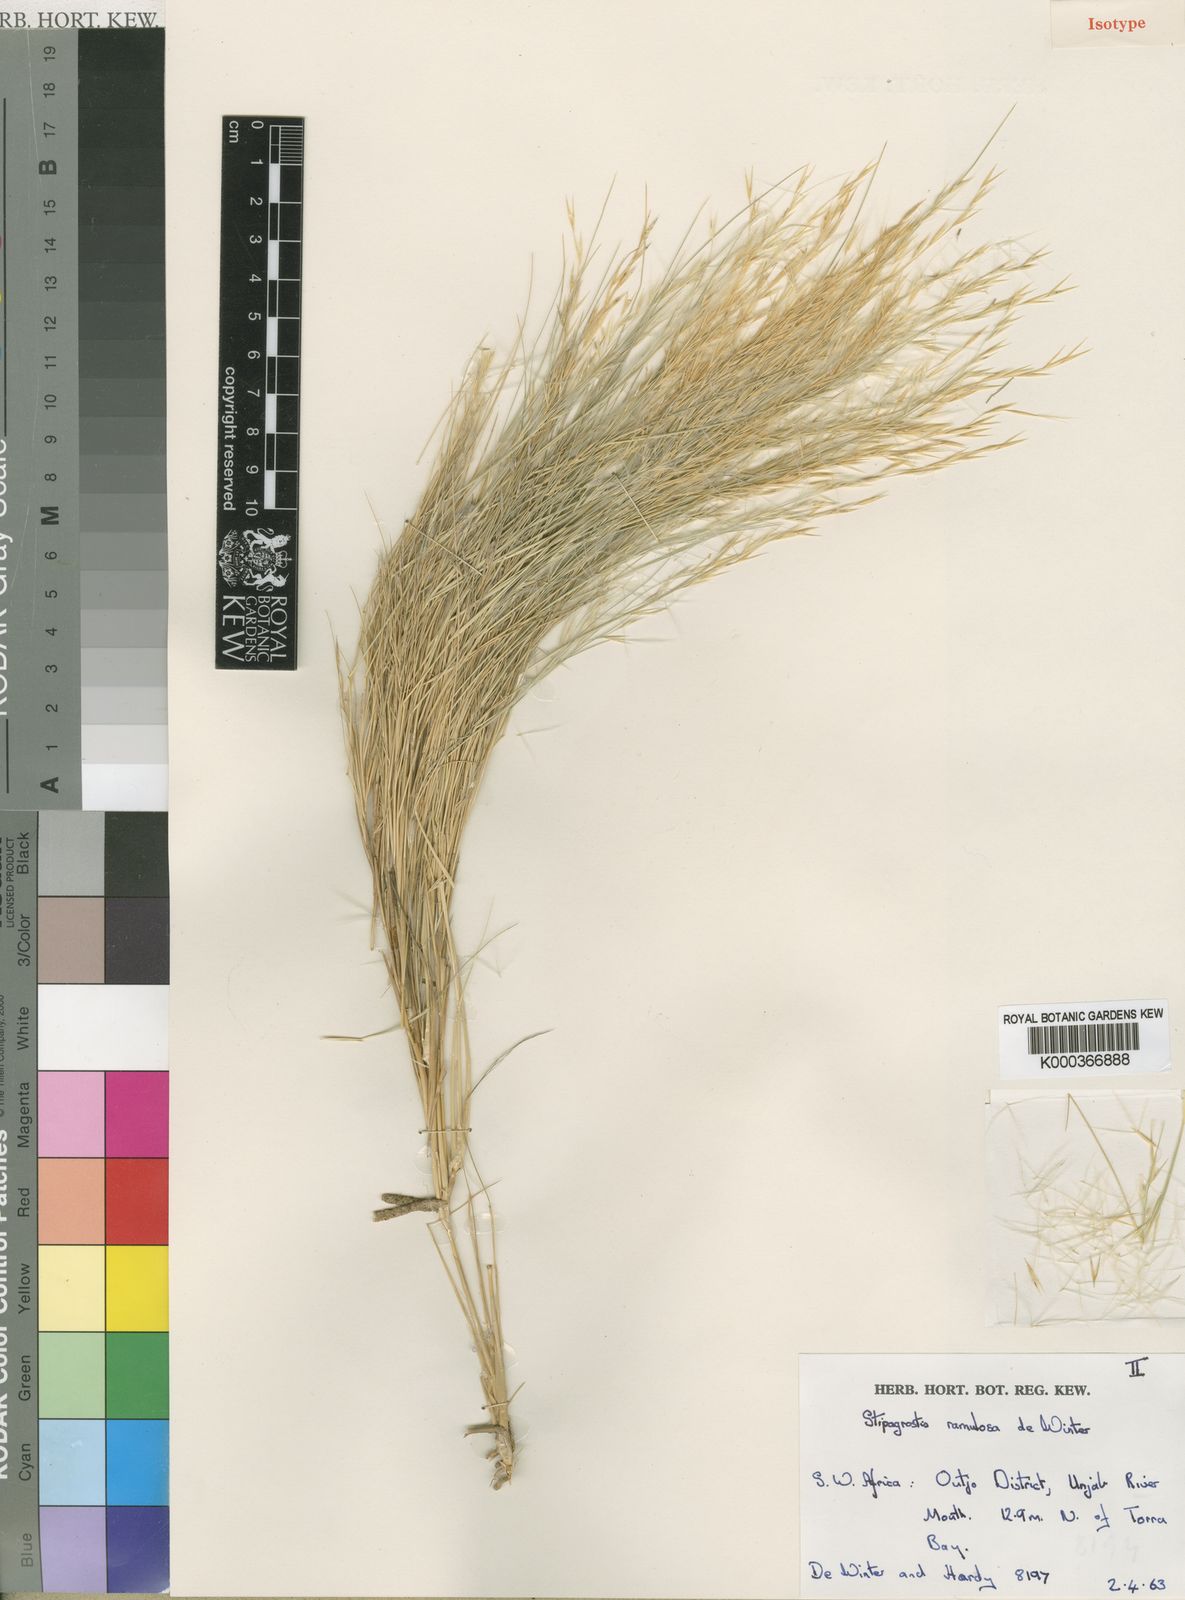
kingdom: Plantae
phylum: Tracheophyta
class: Liliopsida
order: Poales
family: Poaceae
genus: Stipagrostis
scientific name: Stipagrostis ramulosa
